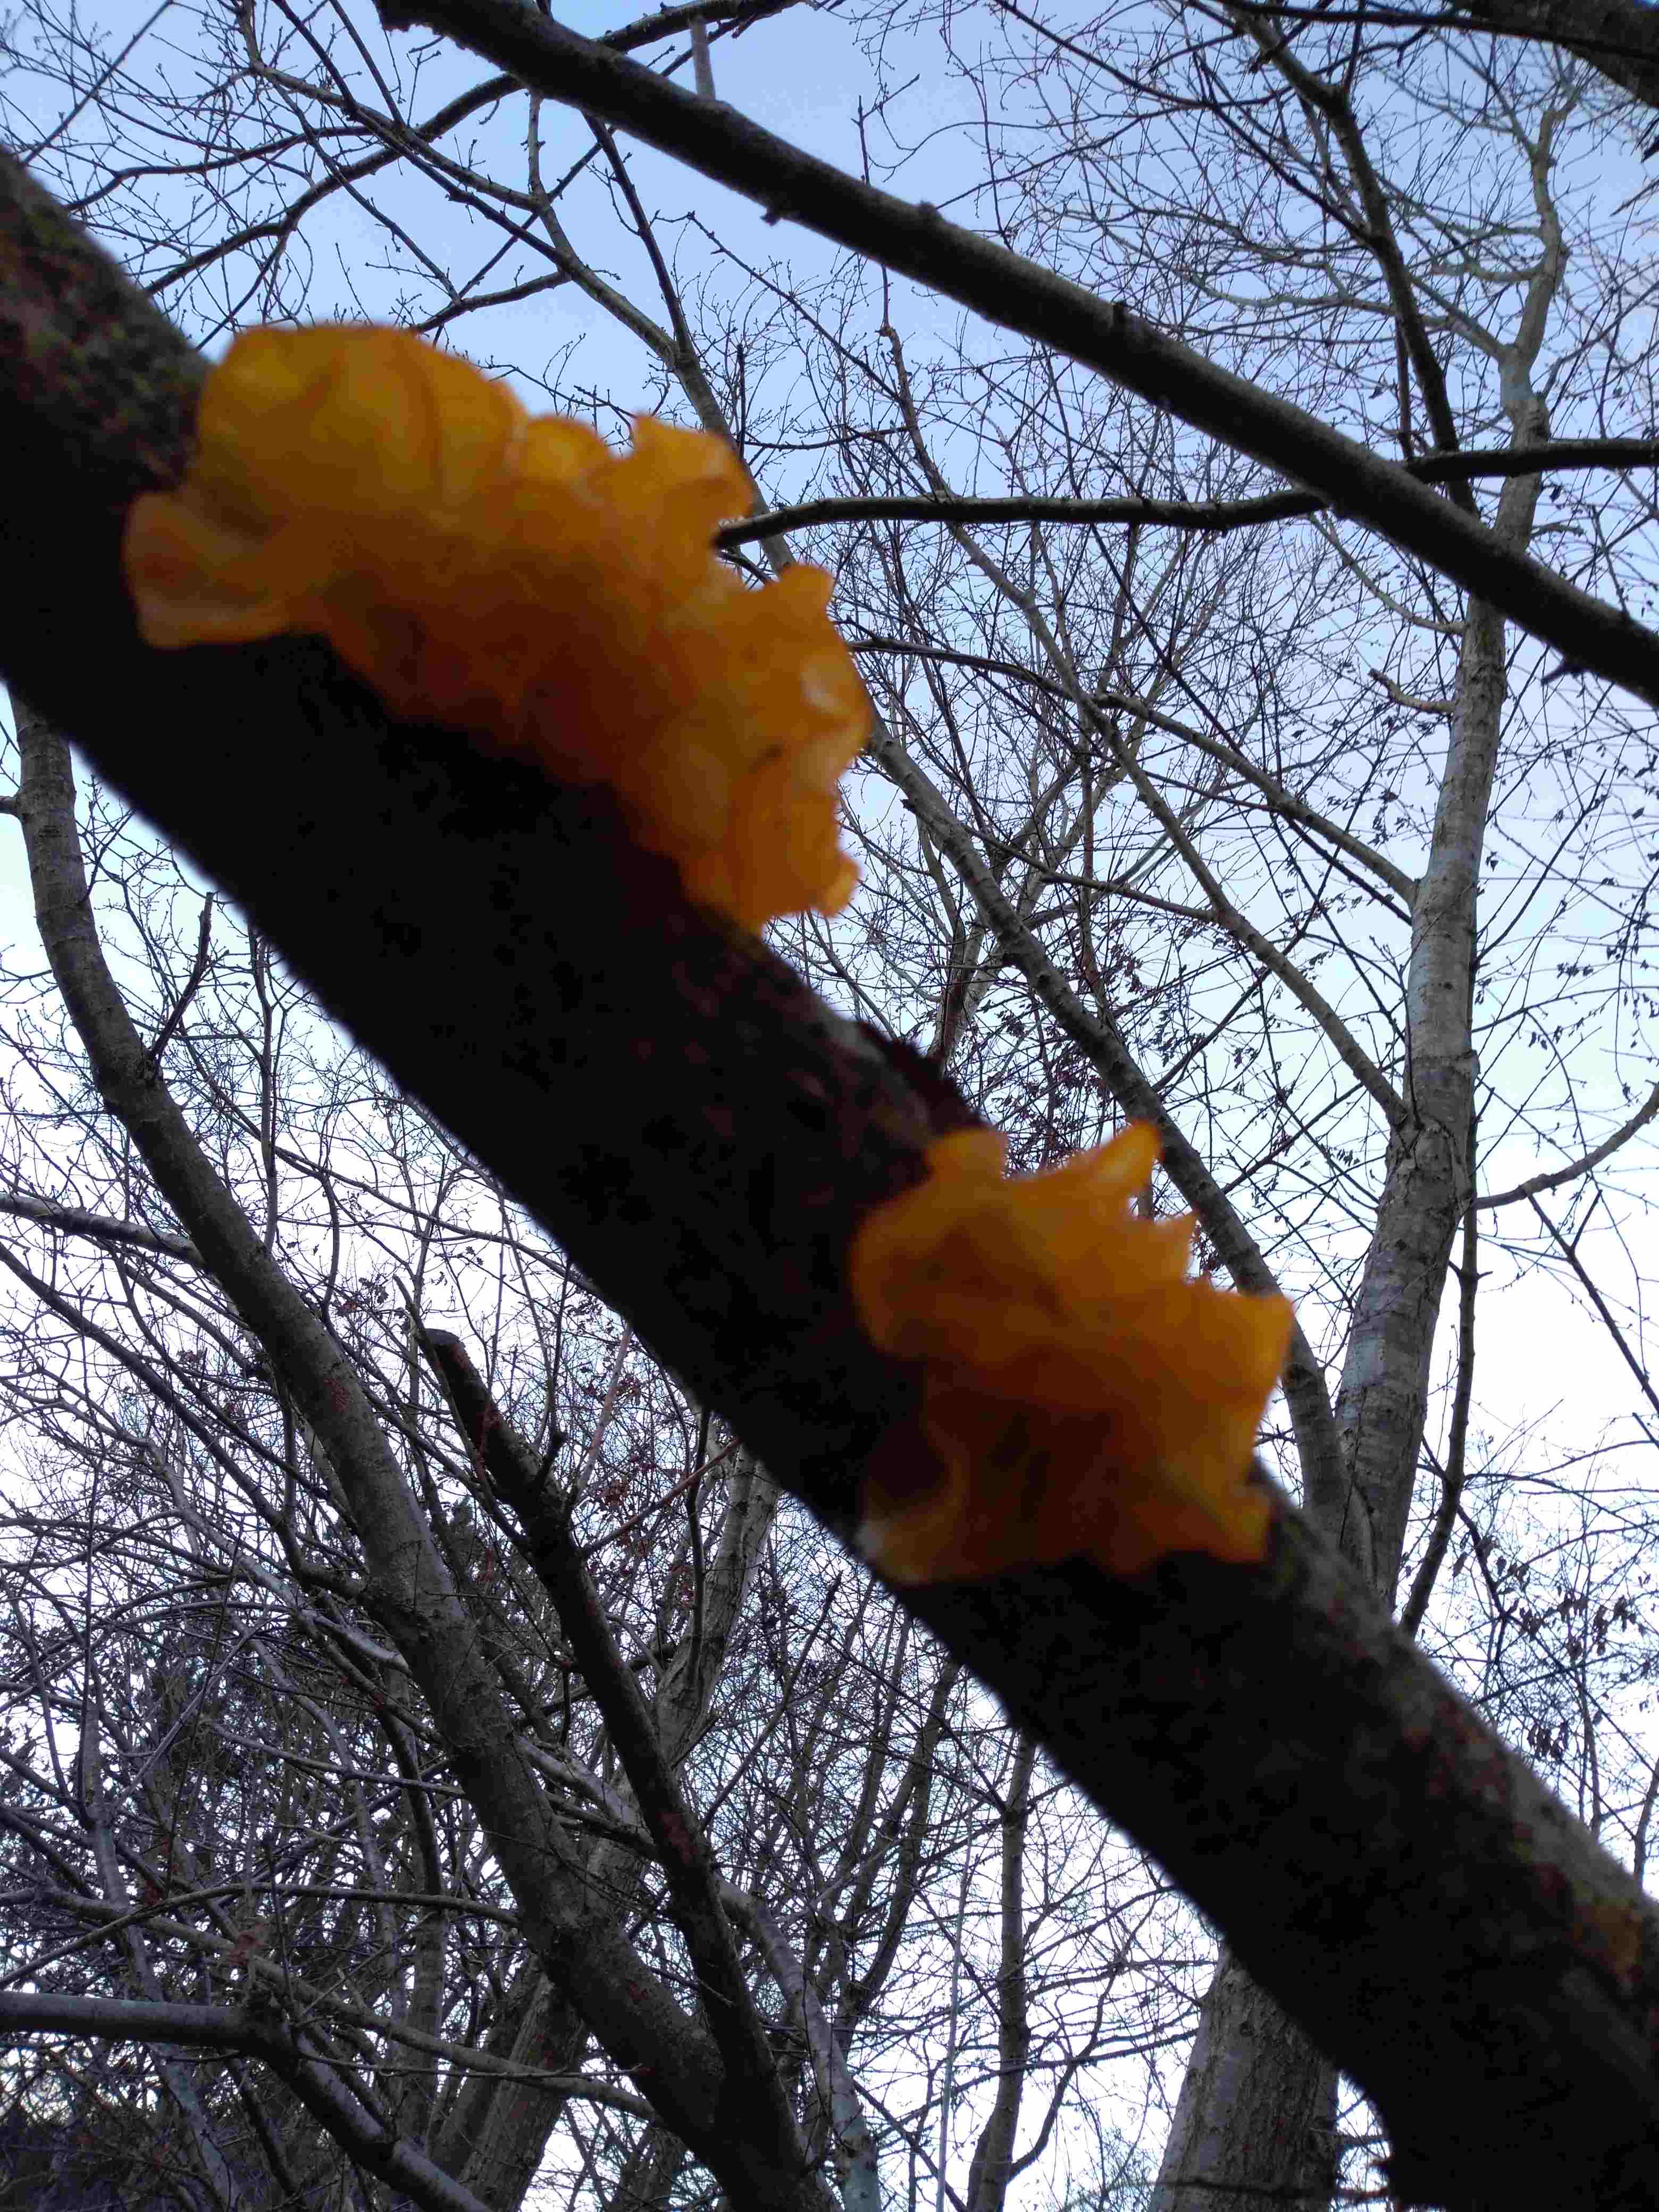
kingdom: Fungi
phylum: Basidiomycota
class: Tremellomycetes
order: Tremellales
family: Tremellaceae
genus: Tremella
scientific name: Tremella mesenterica
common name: gul bævresvamp
